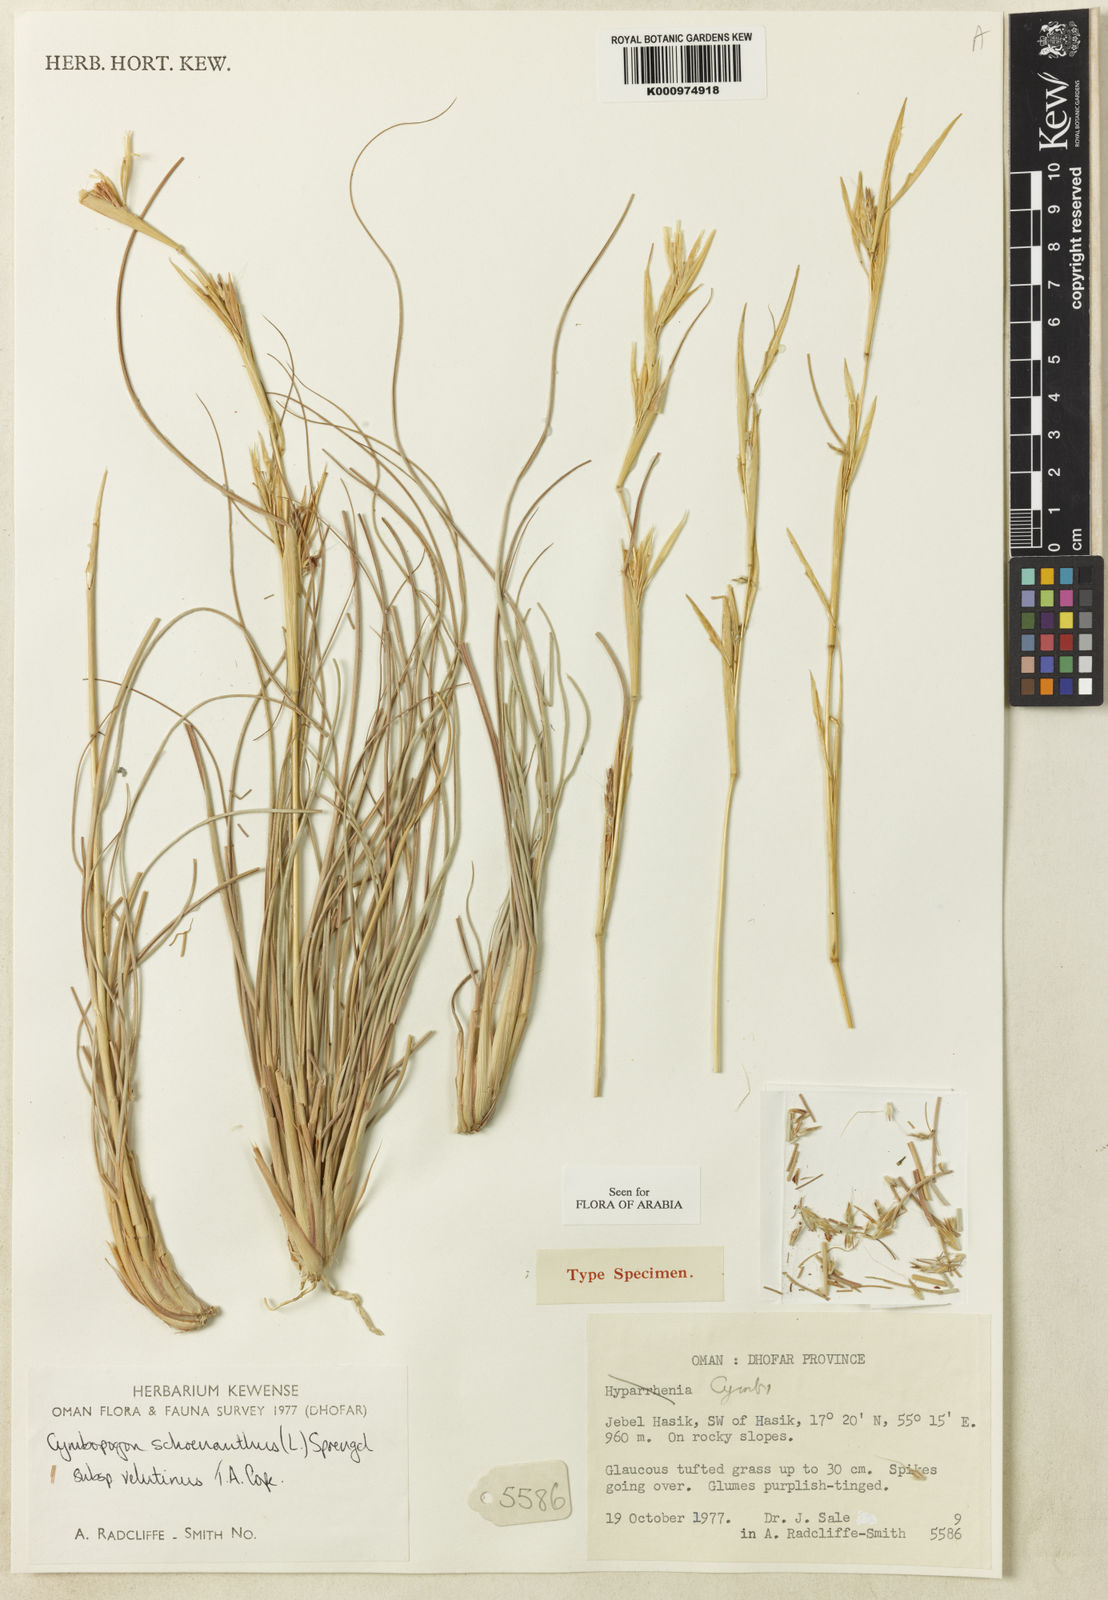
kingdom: Plantae
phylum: Tracheophyta
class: Liliopsida
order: Poales
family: Poaceae
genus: Cymbopogon
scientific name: Cymbopogon commutatus
